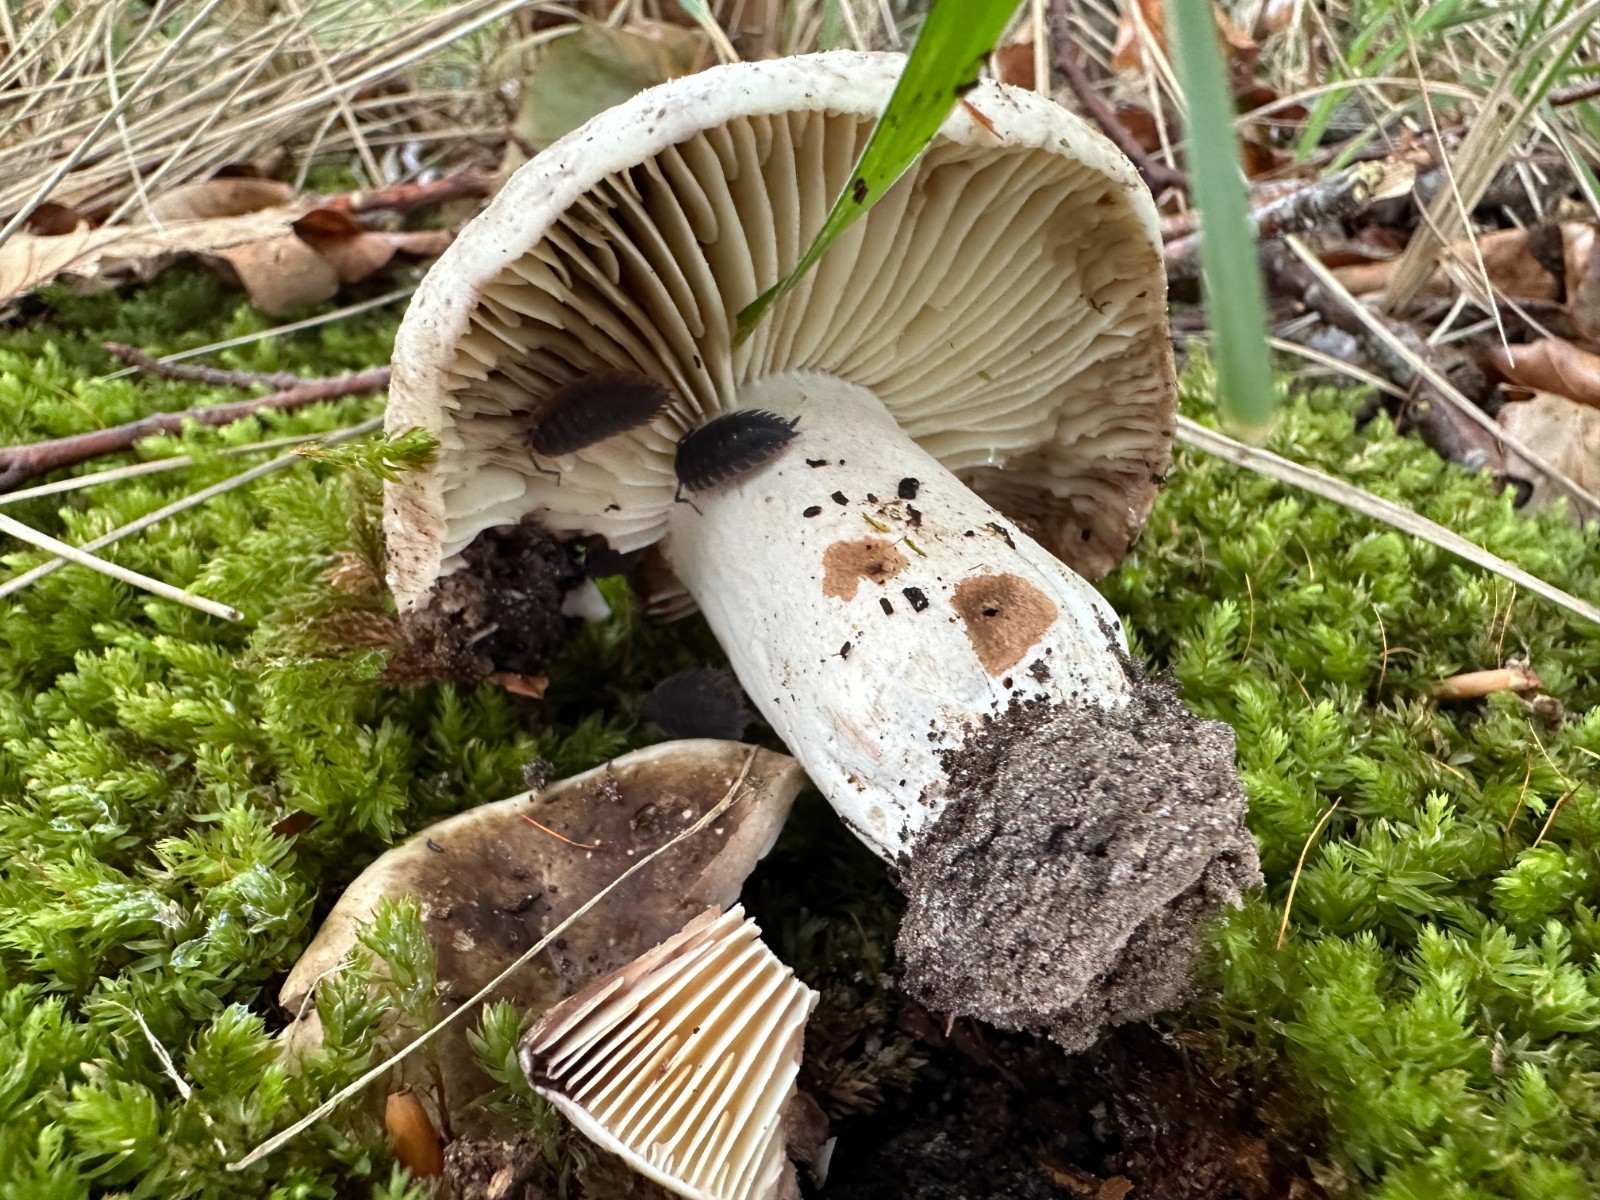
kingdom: Fungi
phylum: Basidiomycota
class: Agaricomycetes
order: Russulales
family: Russulaceae
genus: Russula
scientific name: Russula adusta
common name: sværtende skørhat
